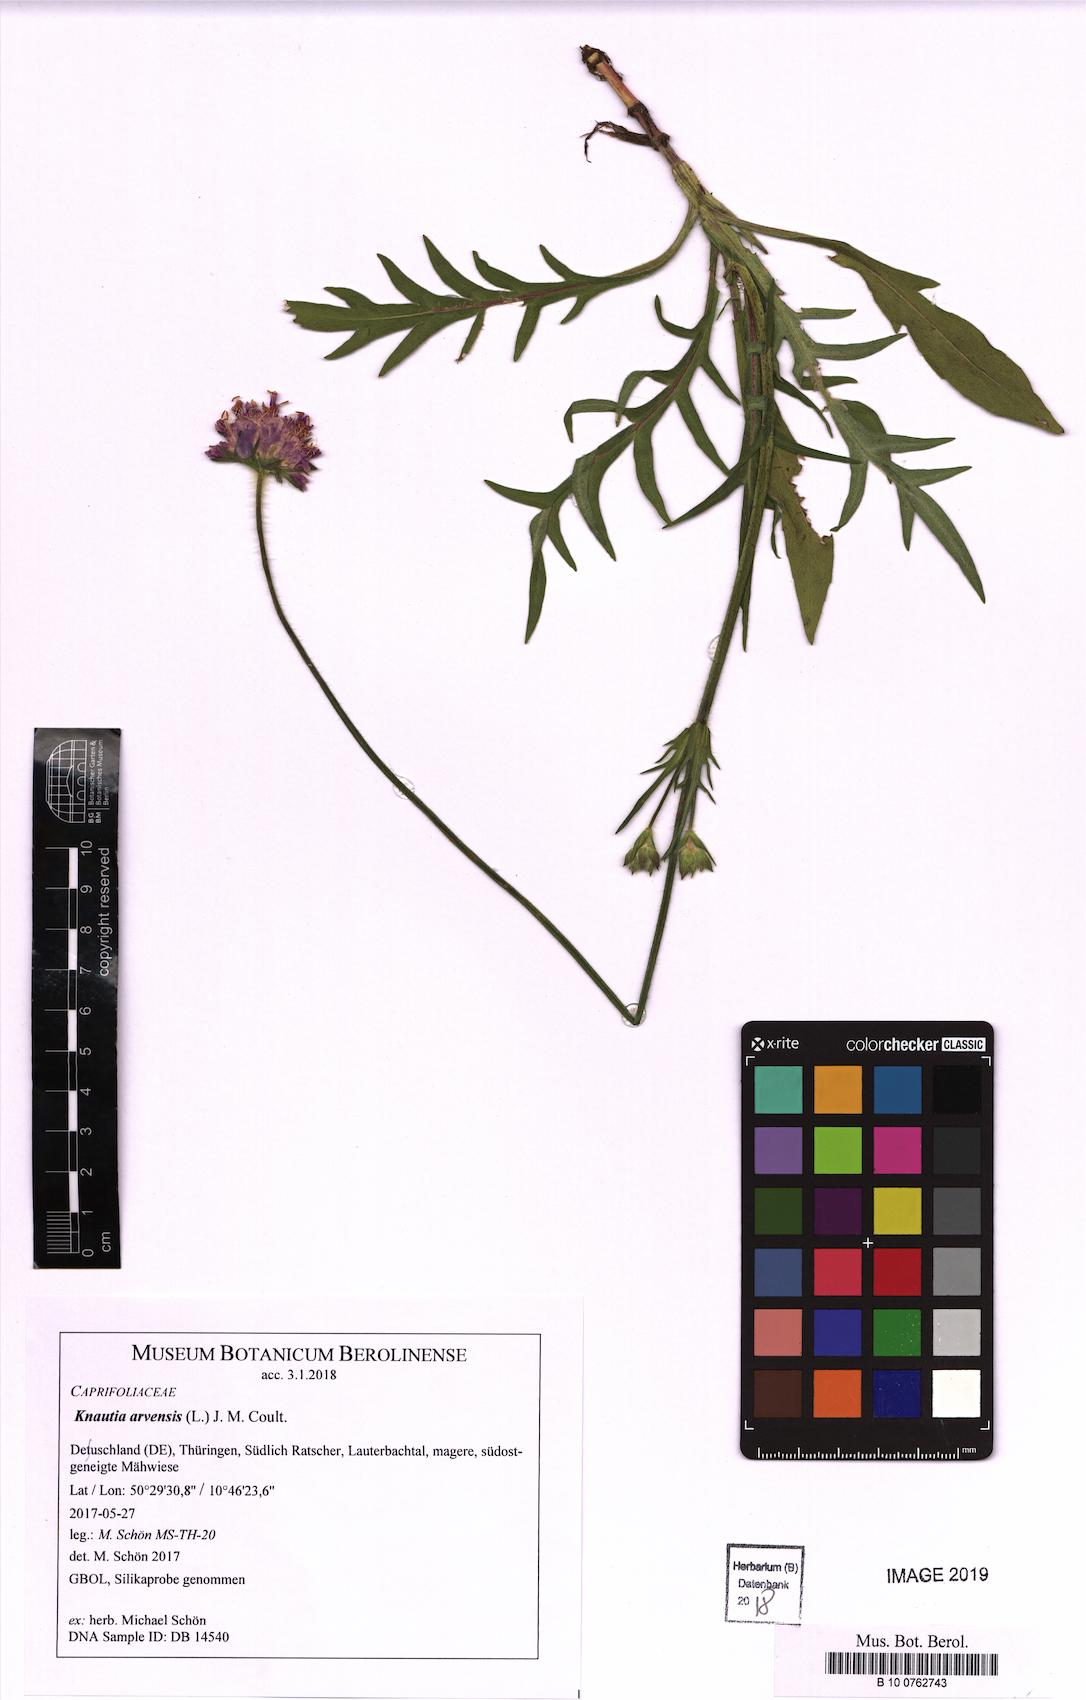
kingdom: Plantae
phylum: Tracheophyta
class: Magnoliopsida
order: Dipsacales
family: Caprifoliaceae
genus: Knautia
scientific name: Knautia arvensis
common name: Field scabiosa
